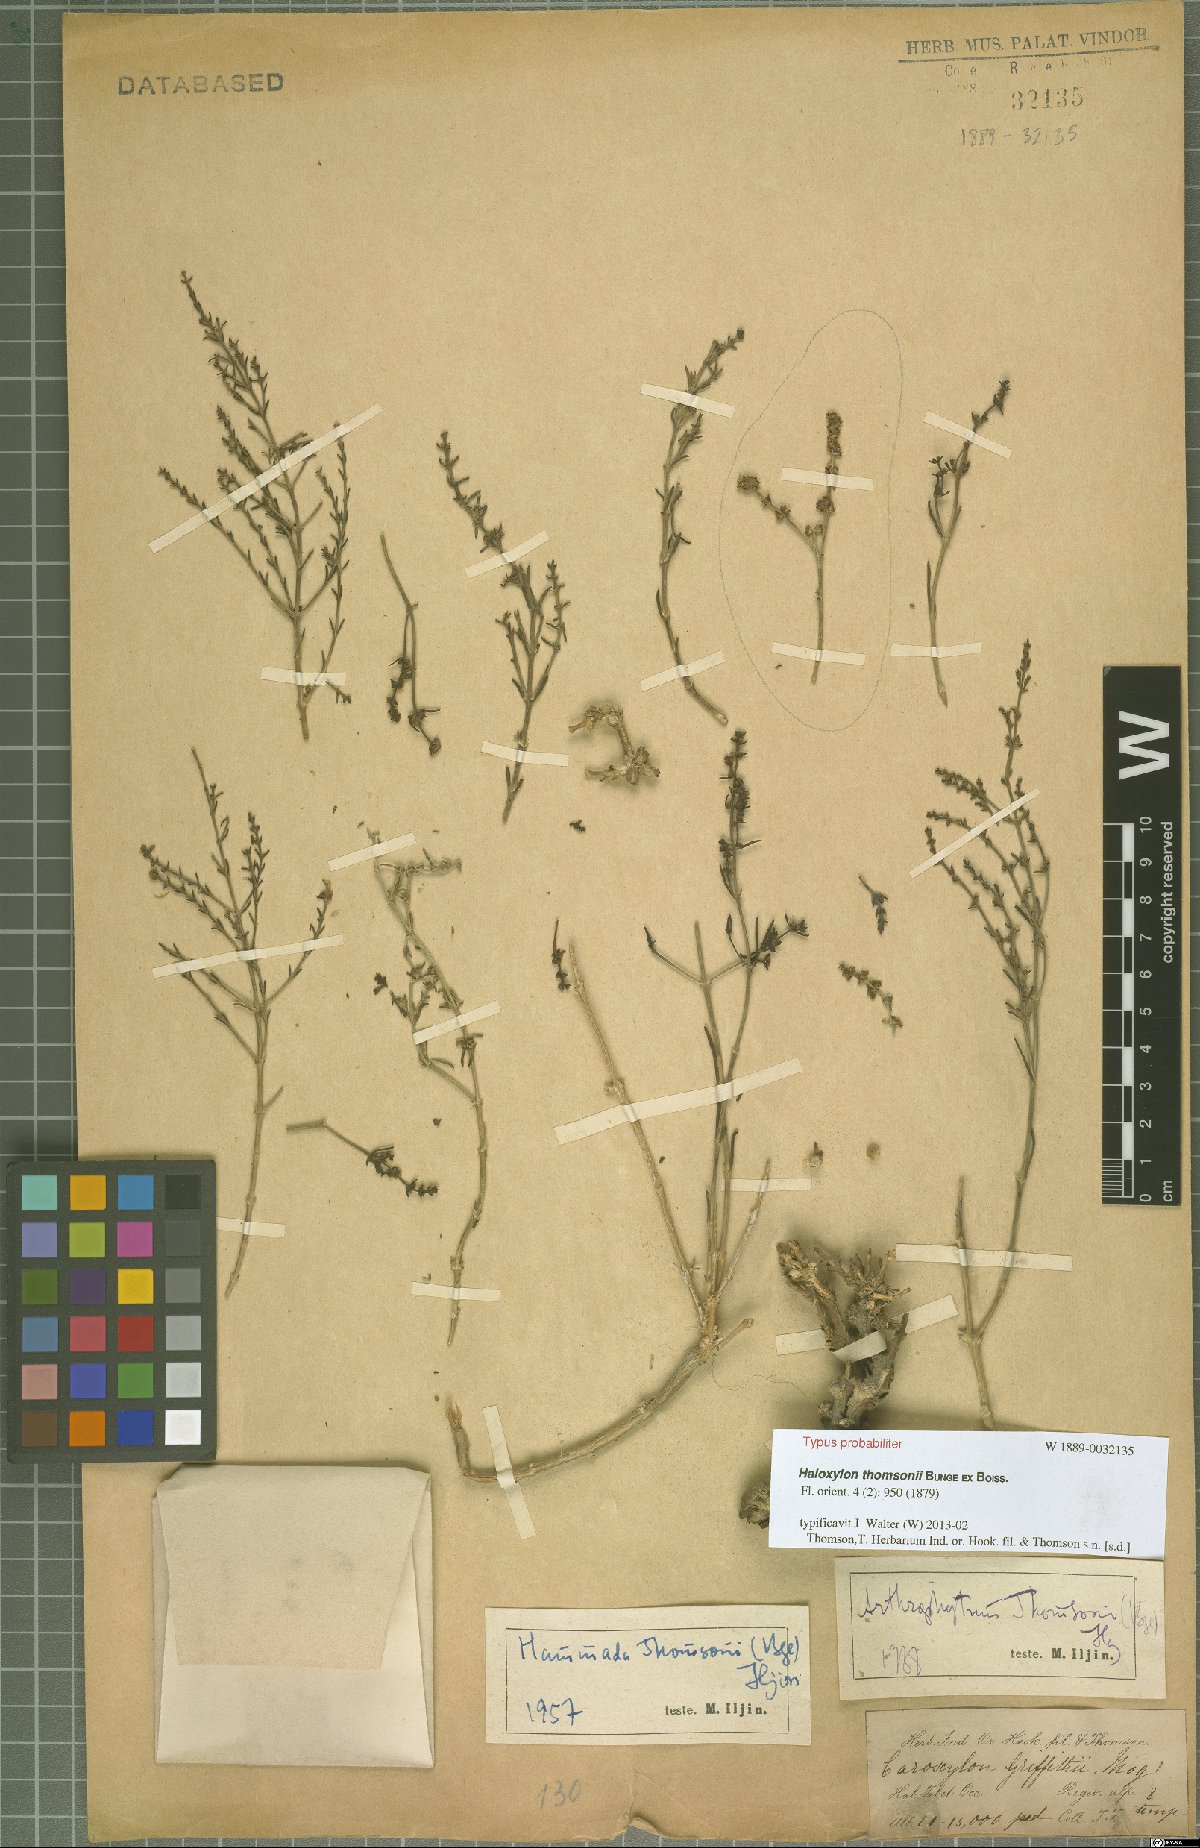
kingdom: Plantae
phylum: Tracheophyta
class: Magnoliopsida
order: Caryophyllales
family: Amaranthaceae
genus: Haloxylon
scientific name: Haloxylon thomsonii
